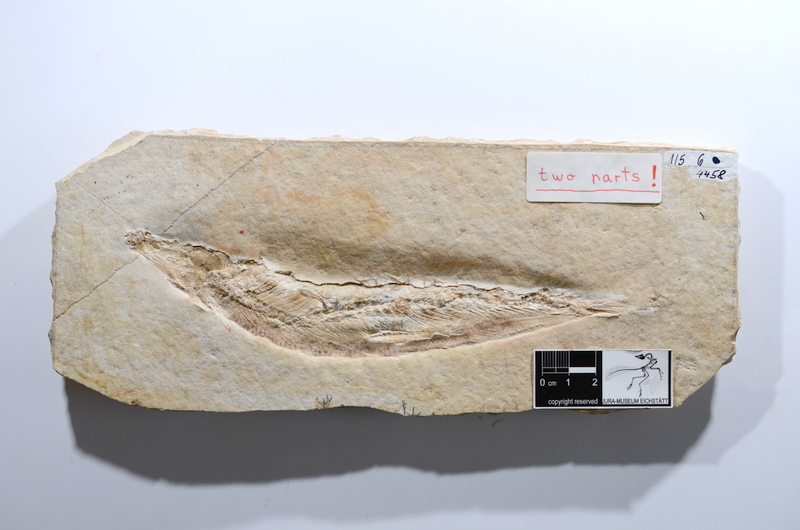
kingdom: Animalia
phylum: Chordata
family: Ascalaboidae
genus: Tharsis
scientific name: Tharsis dubius
